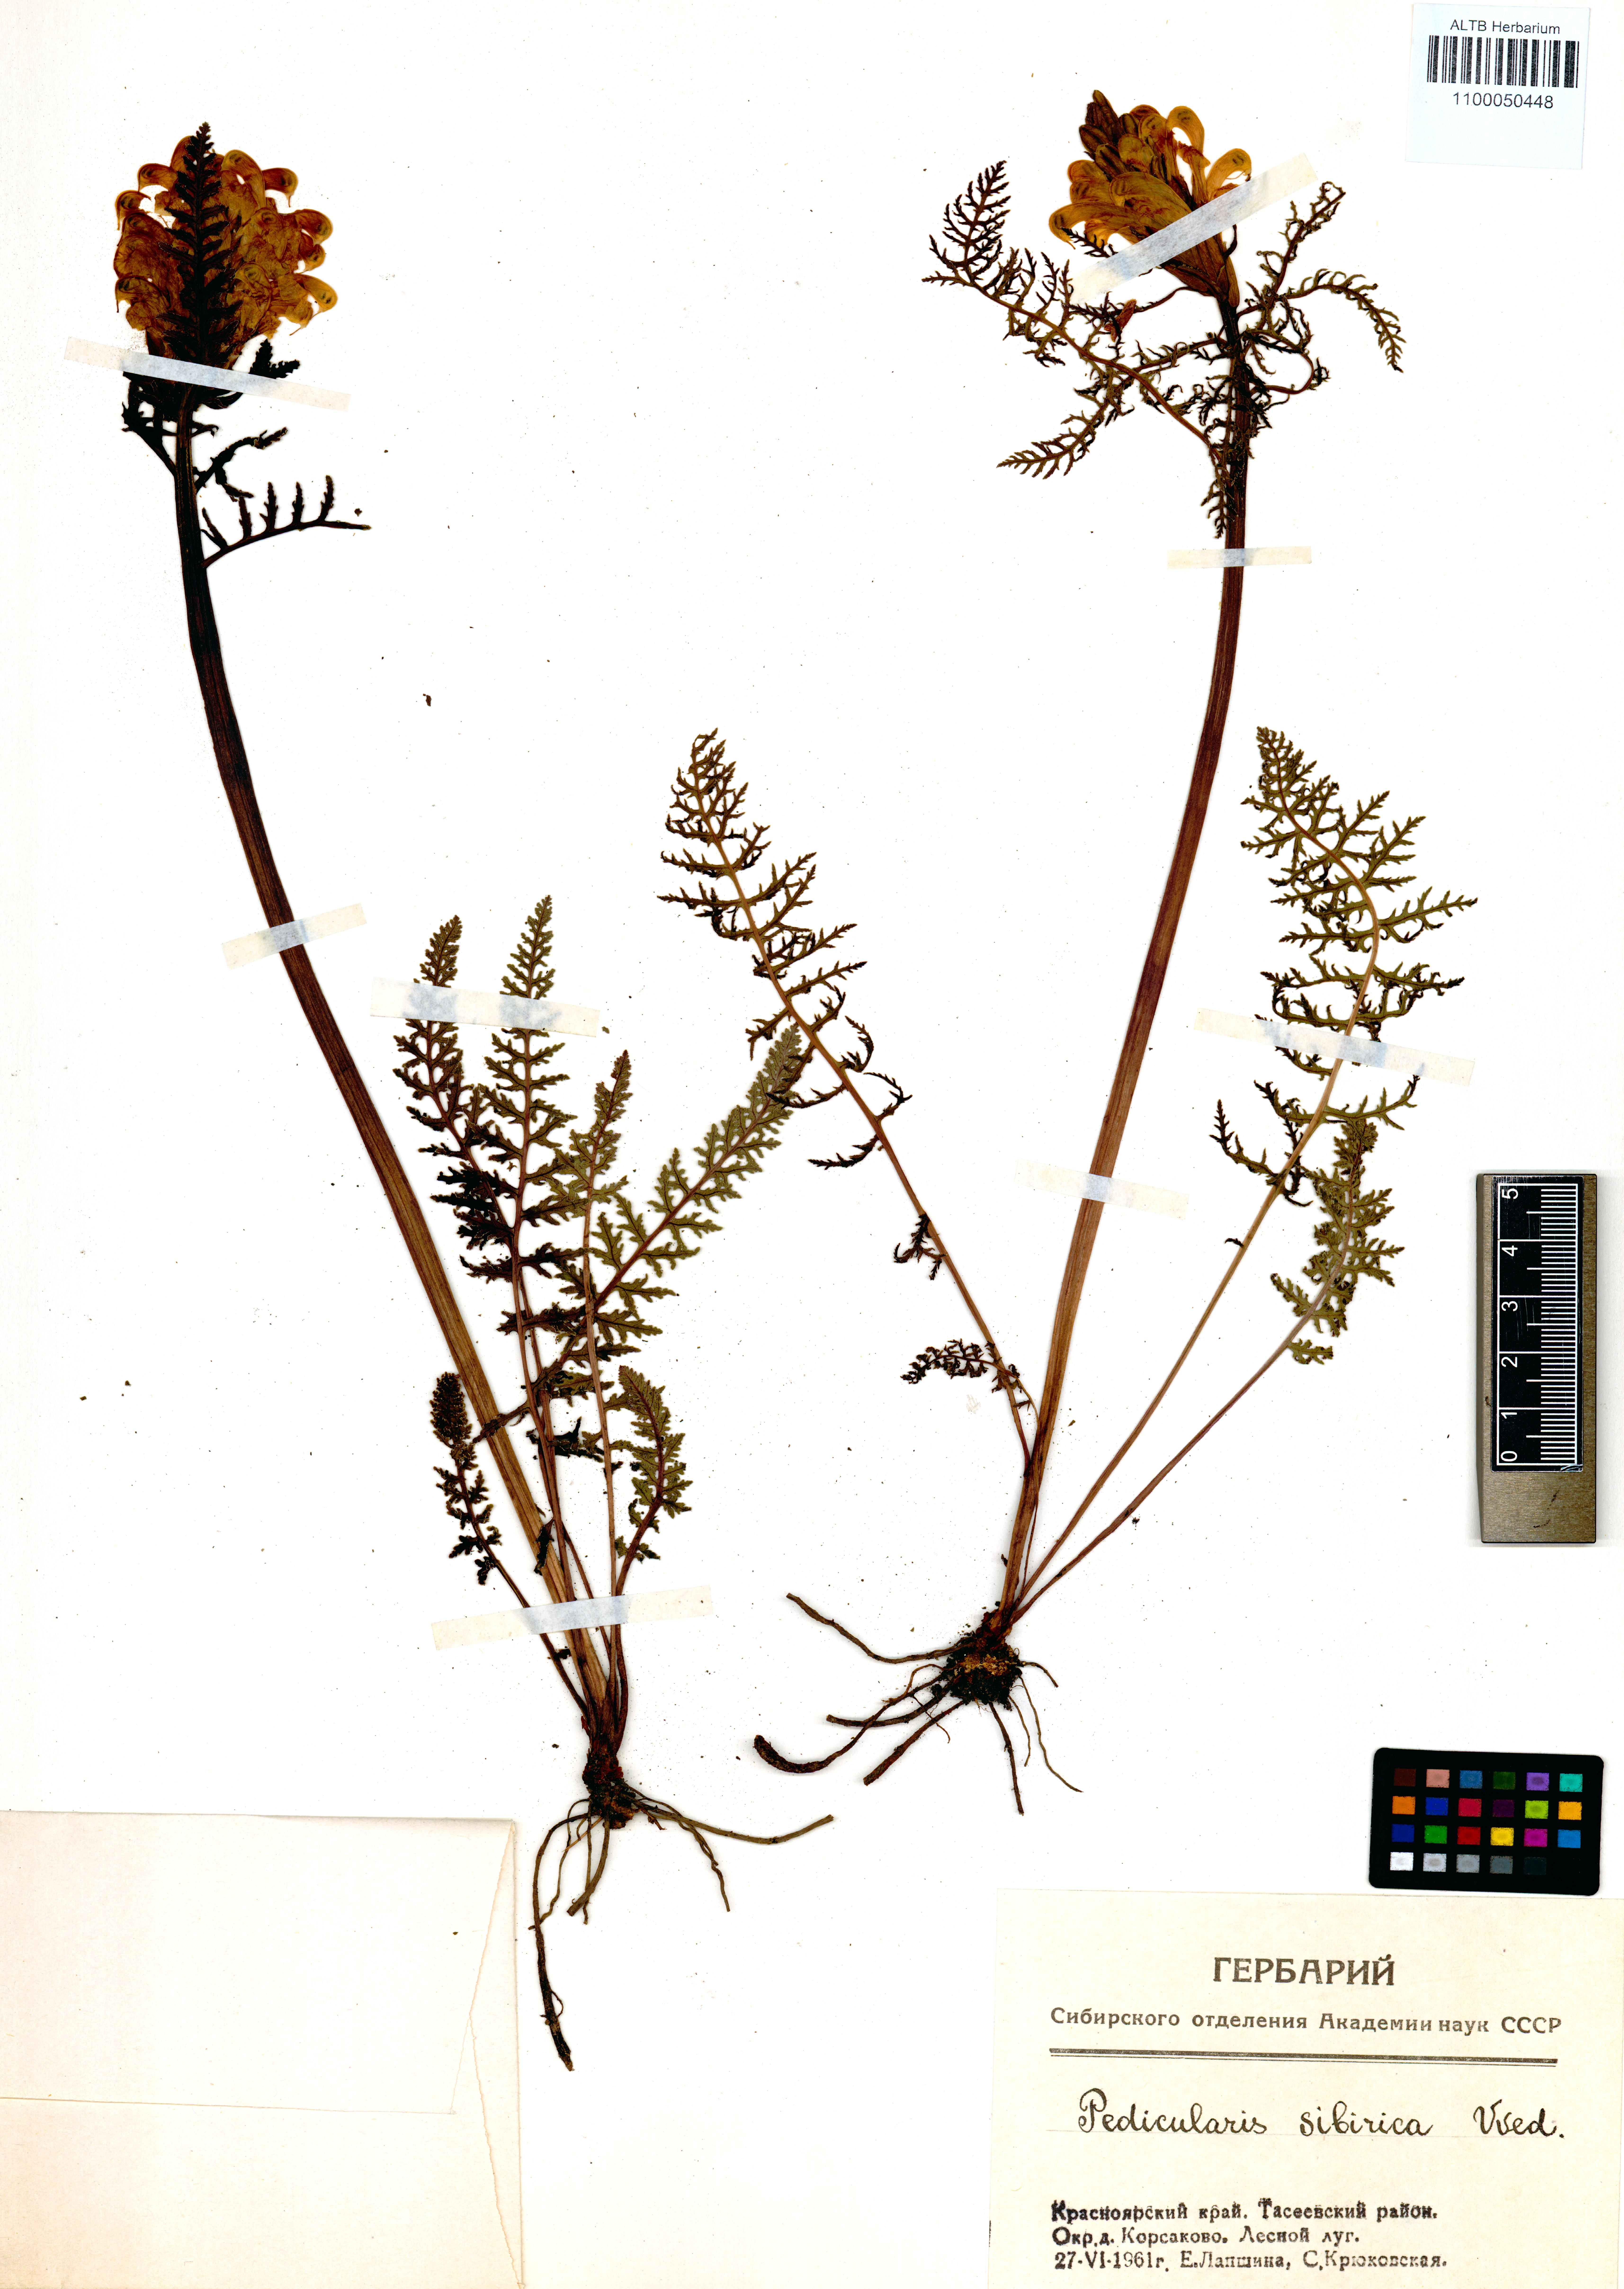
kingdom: Plantae
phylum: Tracheophyta
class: Magnoliopsida
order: Lamiales
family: Orobanchaceae
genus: Pedicularis
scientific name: Pedicularis sibirica
